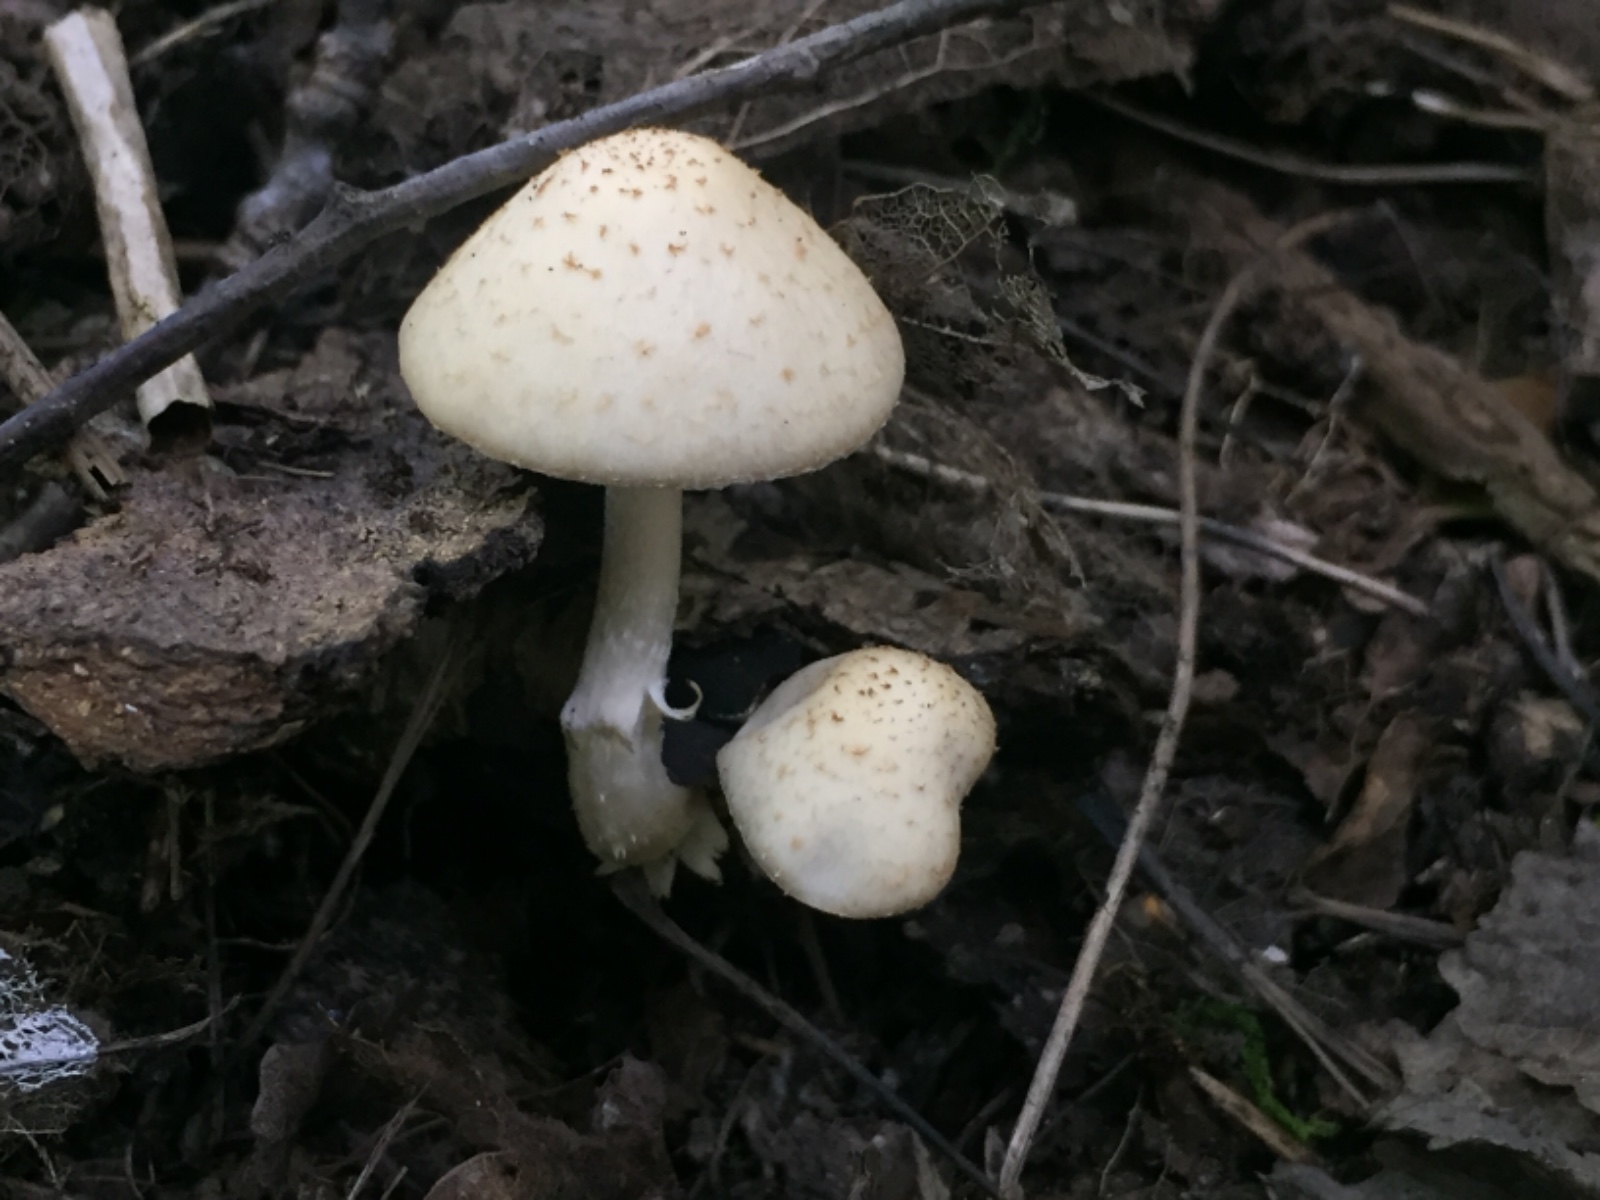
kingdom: Fungi
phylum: Basidiomycota
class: Agaricomycetes
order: Agaricales
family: Psathyrellaceae
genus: Candolleomyces
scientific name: Candolleomyces candolleanus
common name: Candolles mørkhat
